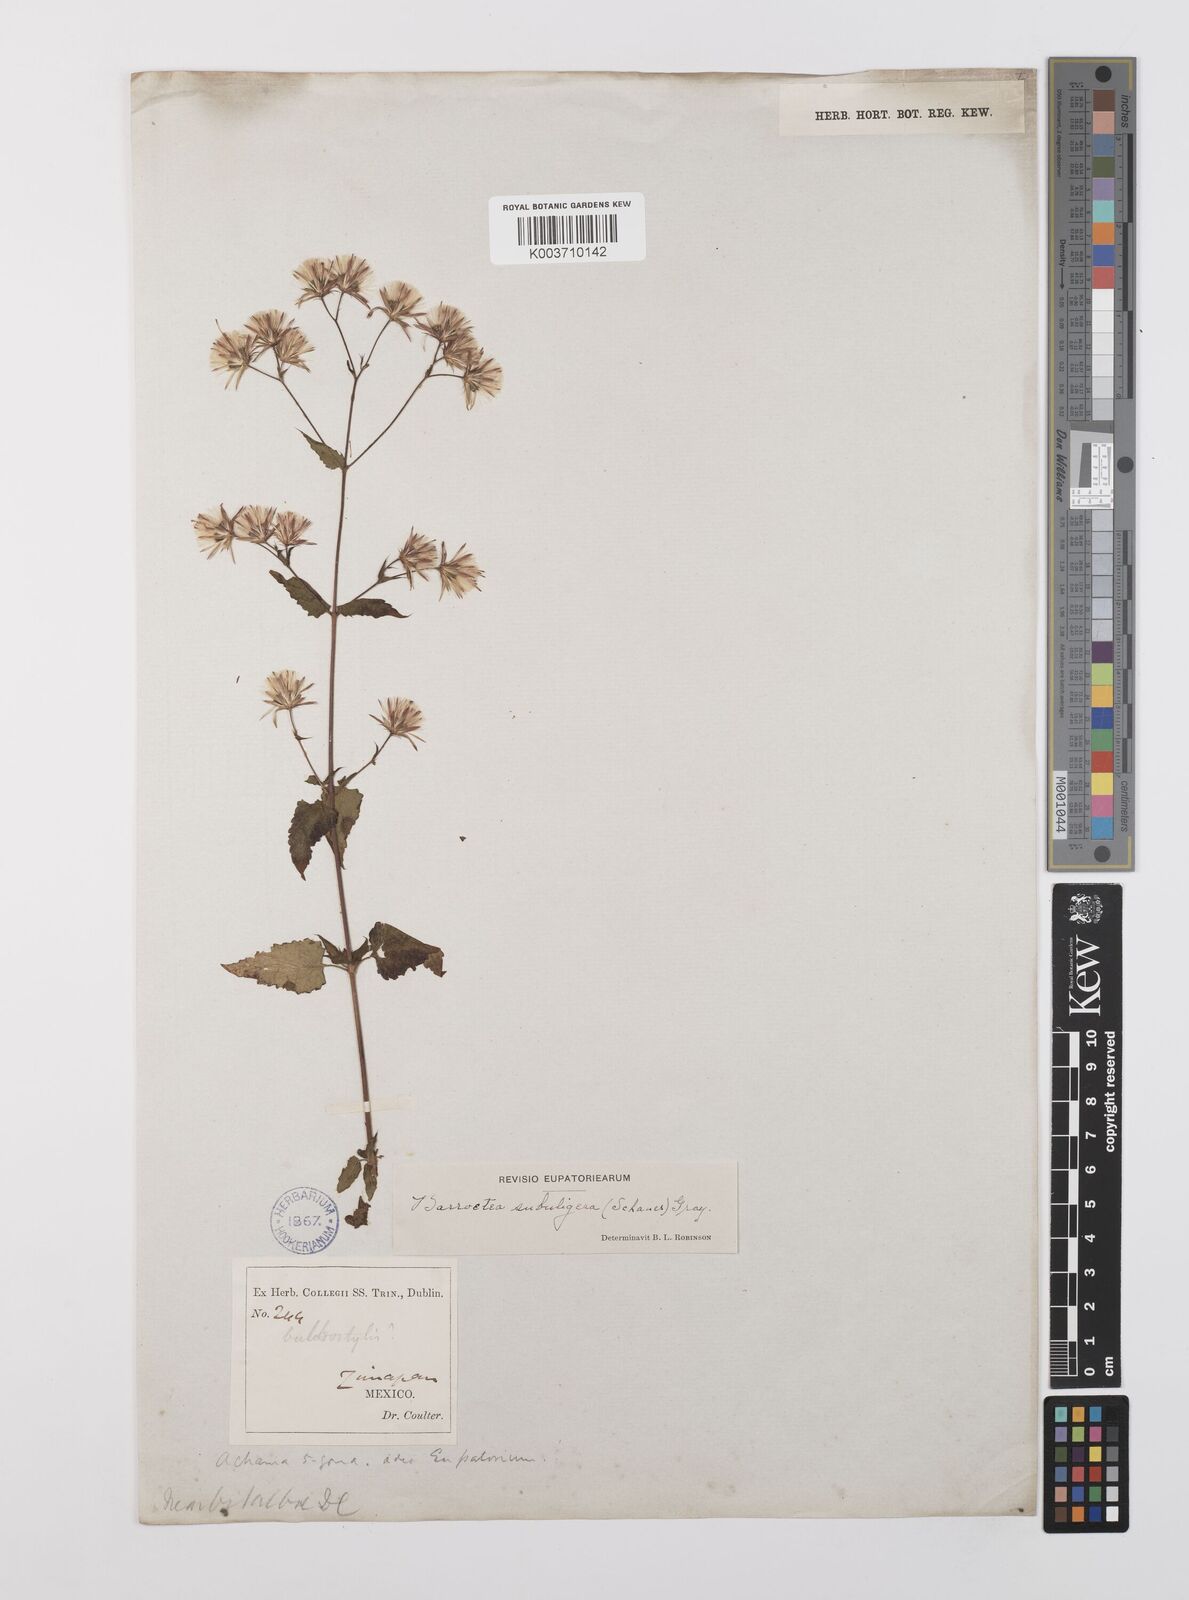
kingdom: Plantae
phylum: Tracheophyta
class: Magnoliopsida
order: Asterales
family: Asteraceae
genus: Brickellia
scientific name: Brickellia subuligera
